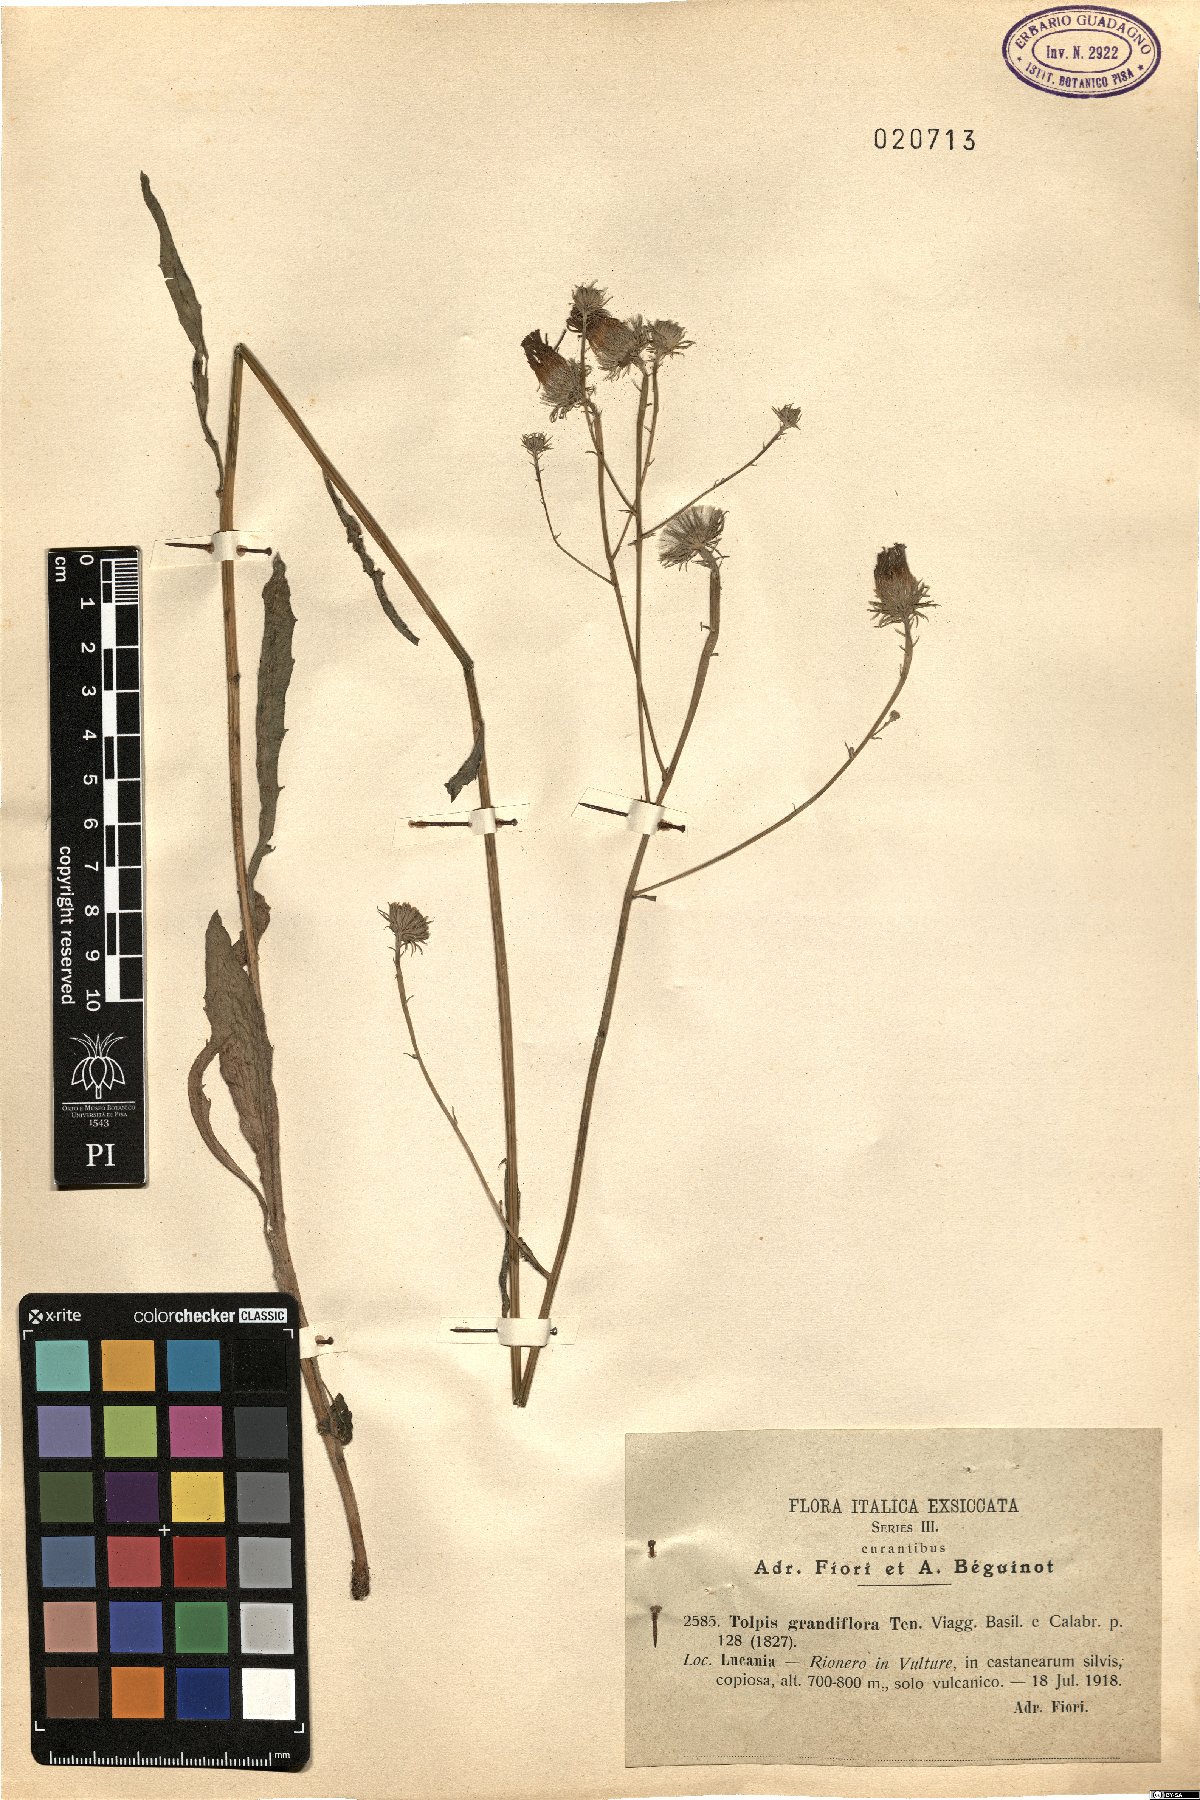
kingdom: Plantae
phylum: Tracheophyta
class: Magnoliopsida
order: Asterales
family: Asteraceae
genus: Tolpis
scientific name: Tolpis virgata
